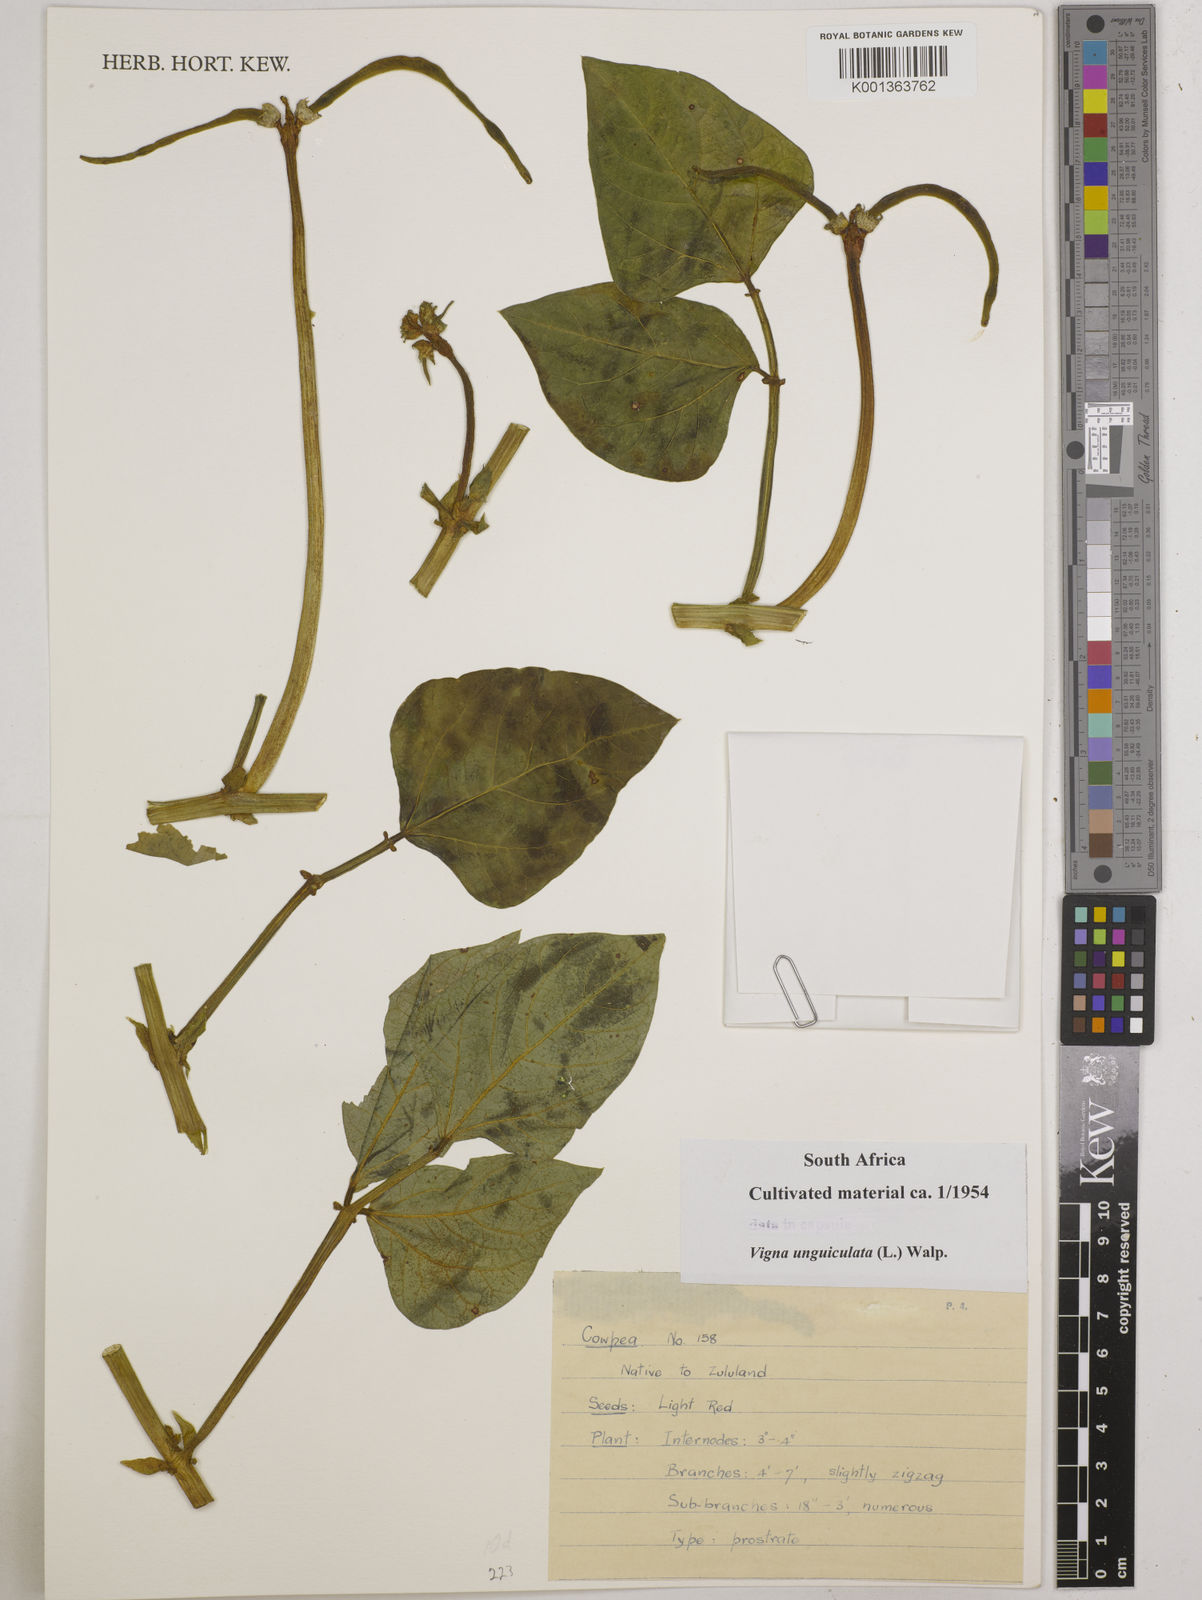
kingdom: Plantae
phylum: Tracheophyta
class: Magnoliopsida
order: Fabales
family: Fabaceae
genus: Vigna
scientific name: Vigna unguiculata
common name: Cowpea
